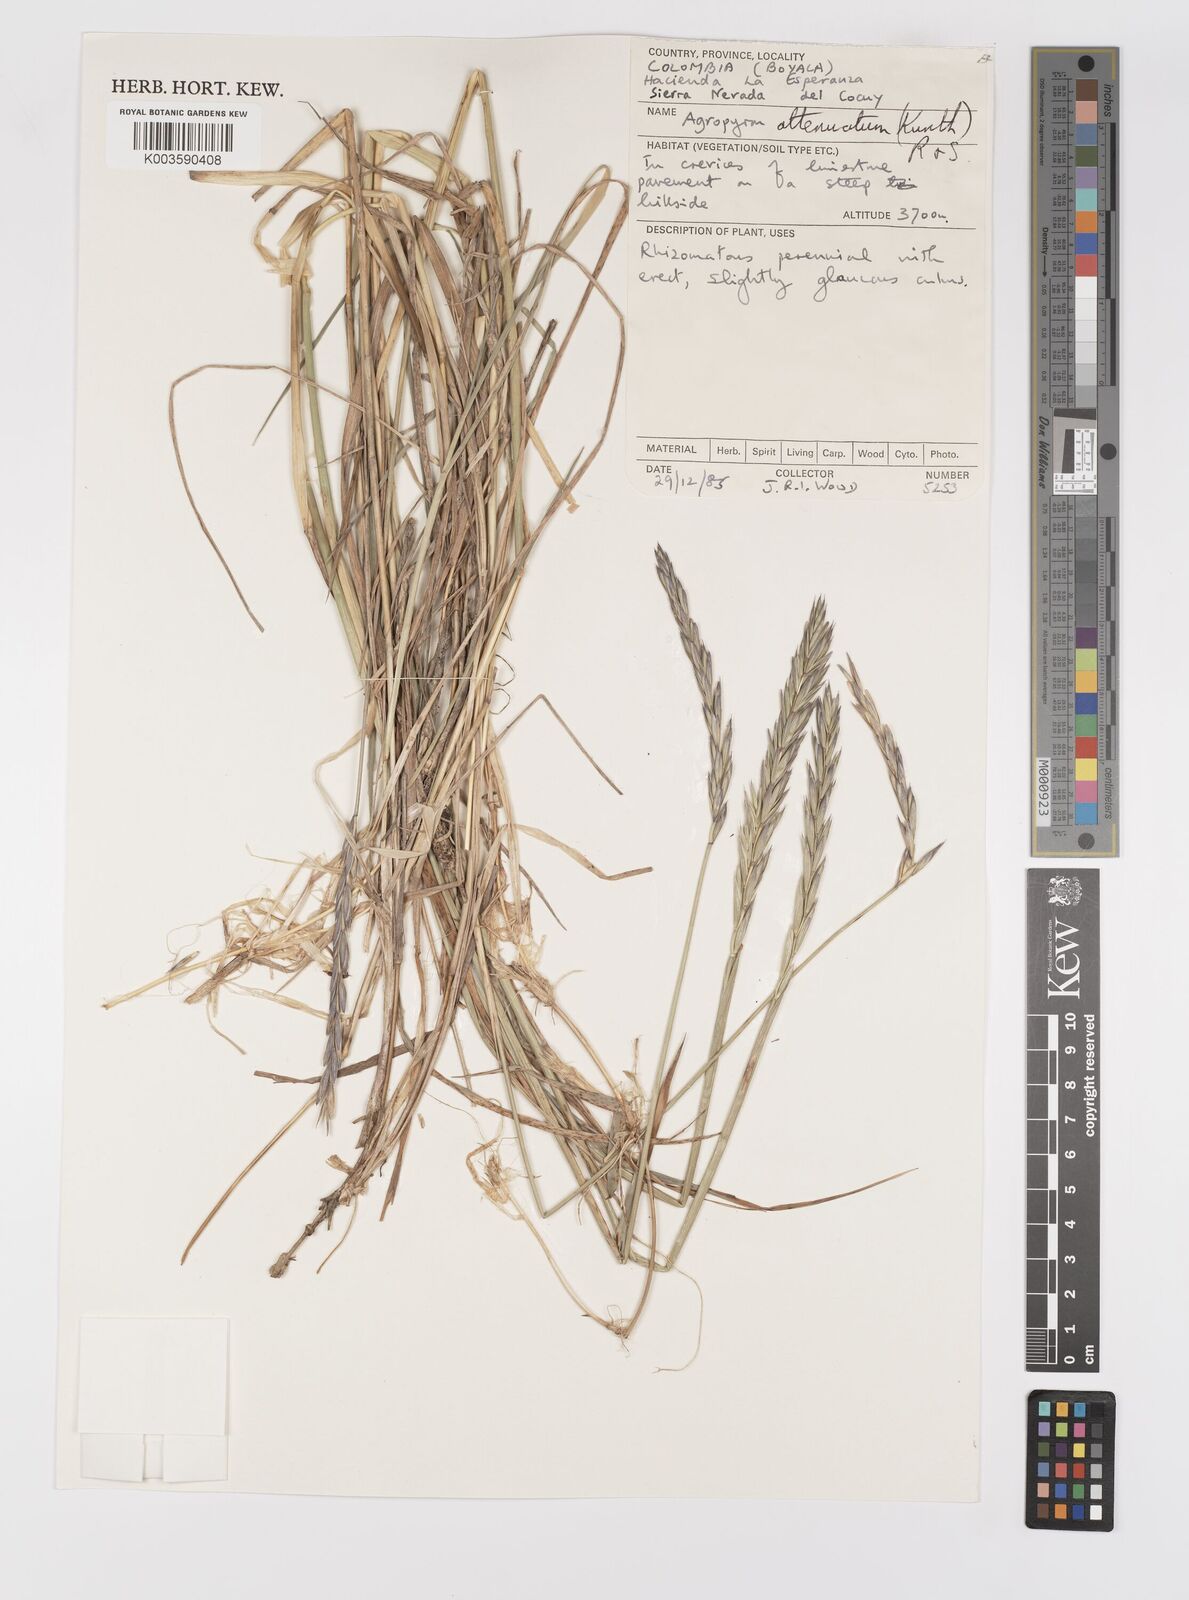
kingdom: Plantae
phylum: Tracheophyta
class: Liliopsida
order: Poales
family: Poaceae
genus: Elymus
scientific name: Elymus cordilleranus
